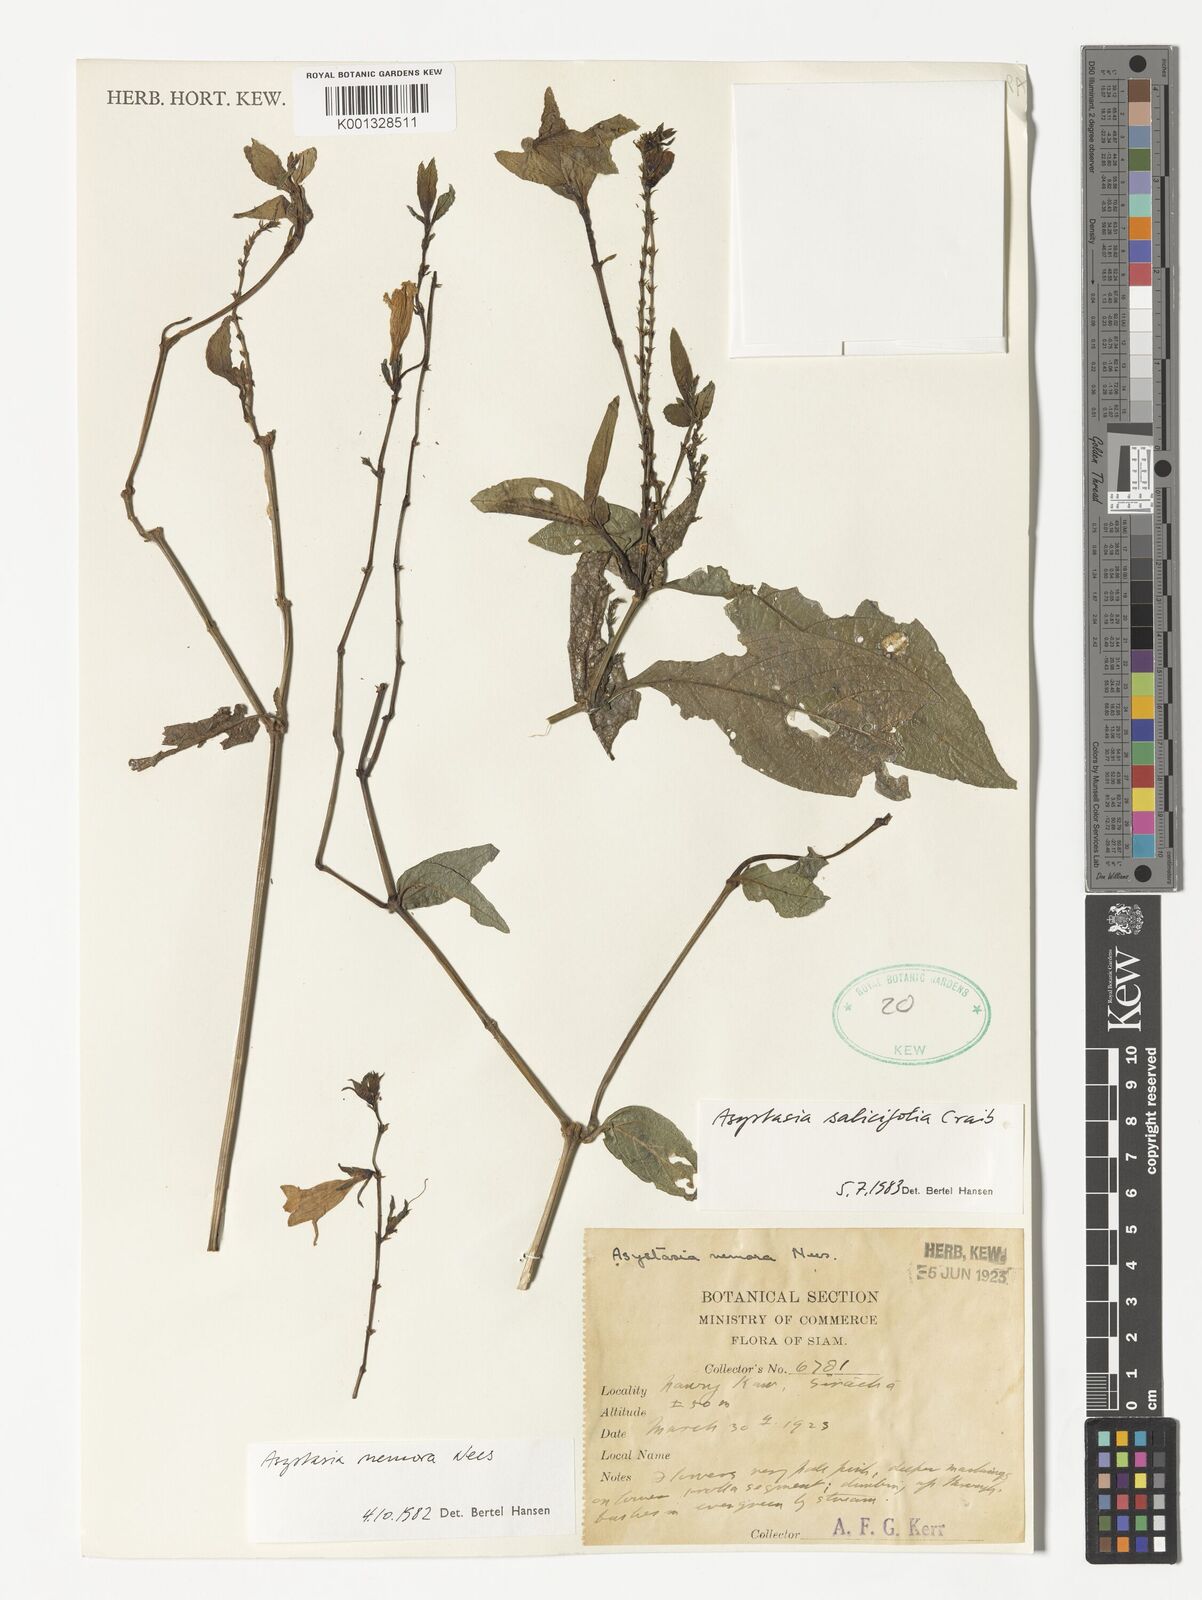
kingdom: Plantae
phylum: Tracheophyta
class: Magnoliopsida
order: Lamiales
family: Acanthaceae
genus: Asystasia
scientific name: Asystasia nemorum
